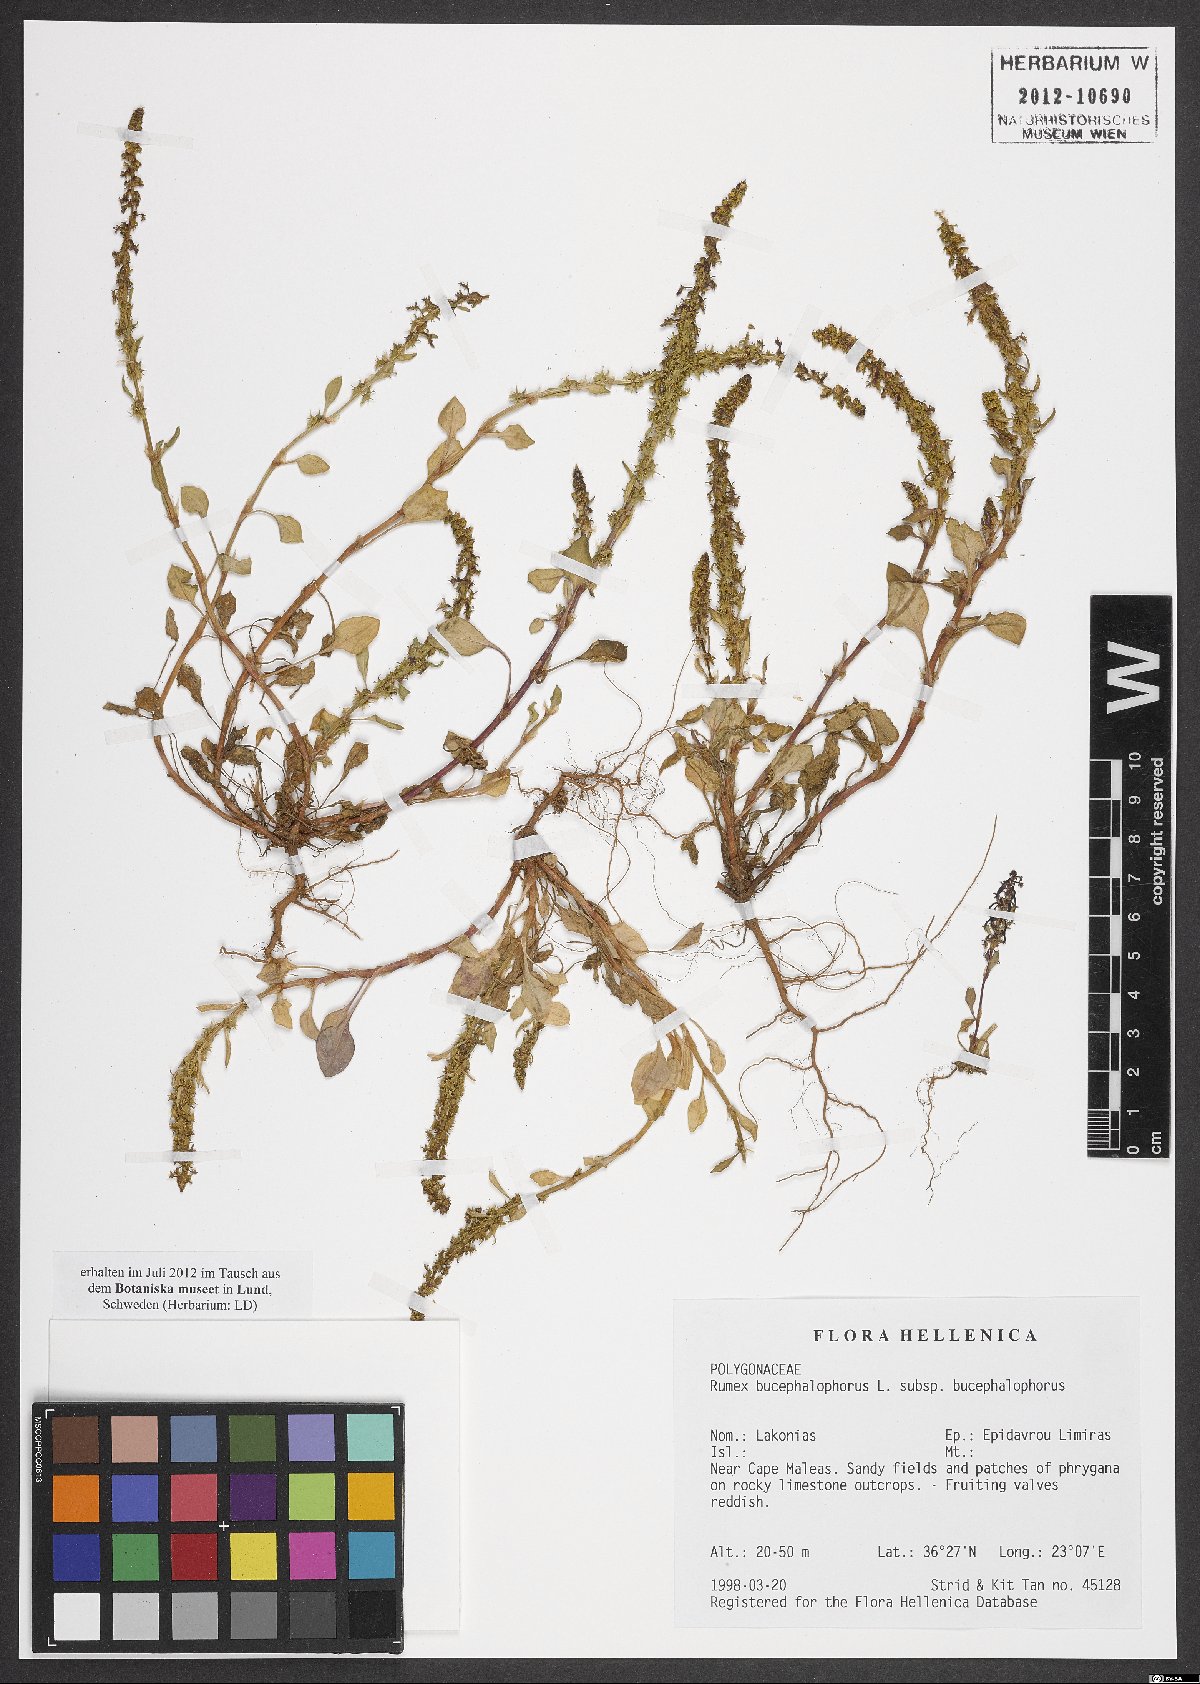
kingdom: Plantae
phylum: Tracheophyta
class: Magnoliopsida
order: Caryophyllales
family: Polygonaceae
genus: Rumex
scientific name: Rumex bucephalophorus
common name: Red dock
